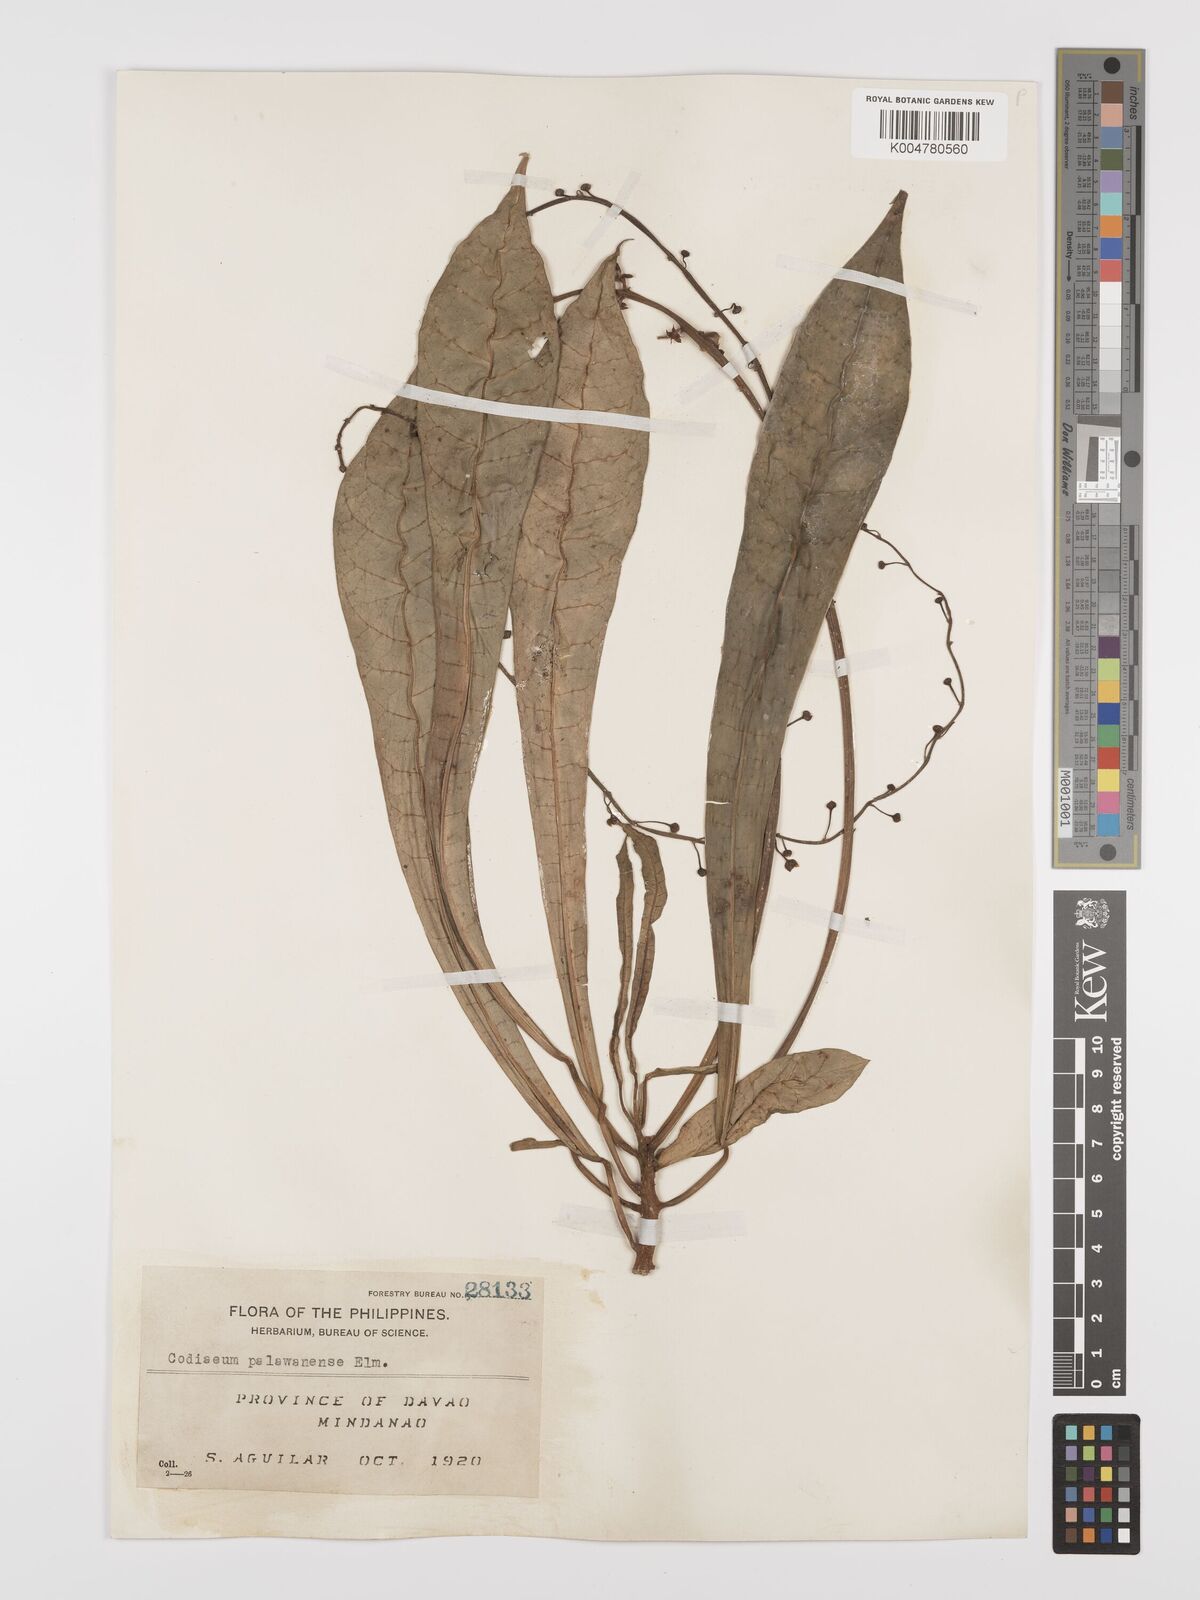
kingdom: Plantae
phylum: Tracheophyta
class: Magnoliopsida
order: Malpighiales
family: Euphorbiaceae
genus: Codiaeum
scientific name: Codiaeum palawanense
